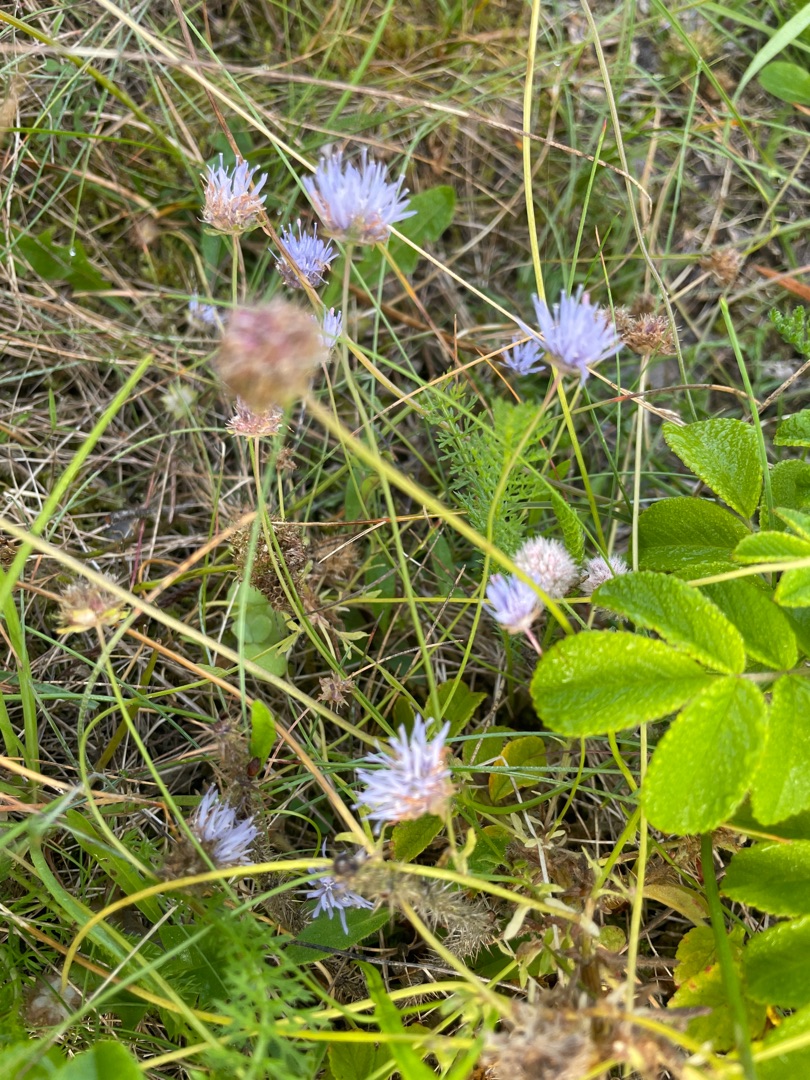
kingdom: Plantae
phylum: Tracheophyta
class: Magnoliopsida
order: Asterales
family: Campanulaceae
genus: Jasione
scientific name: Jasione montana
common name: Blåmunke
